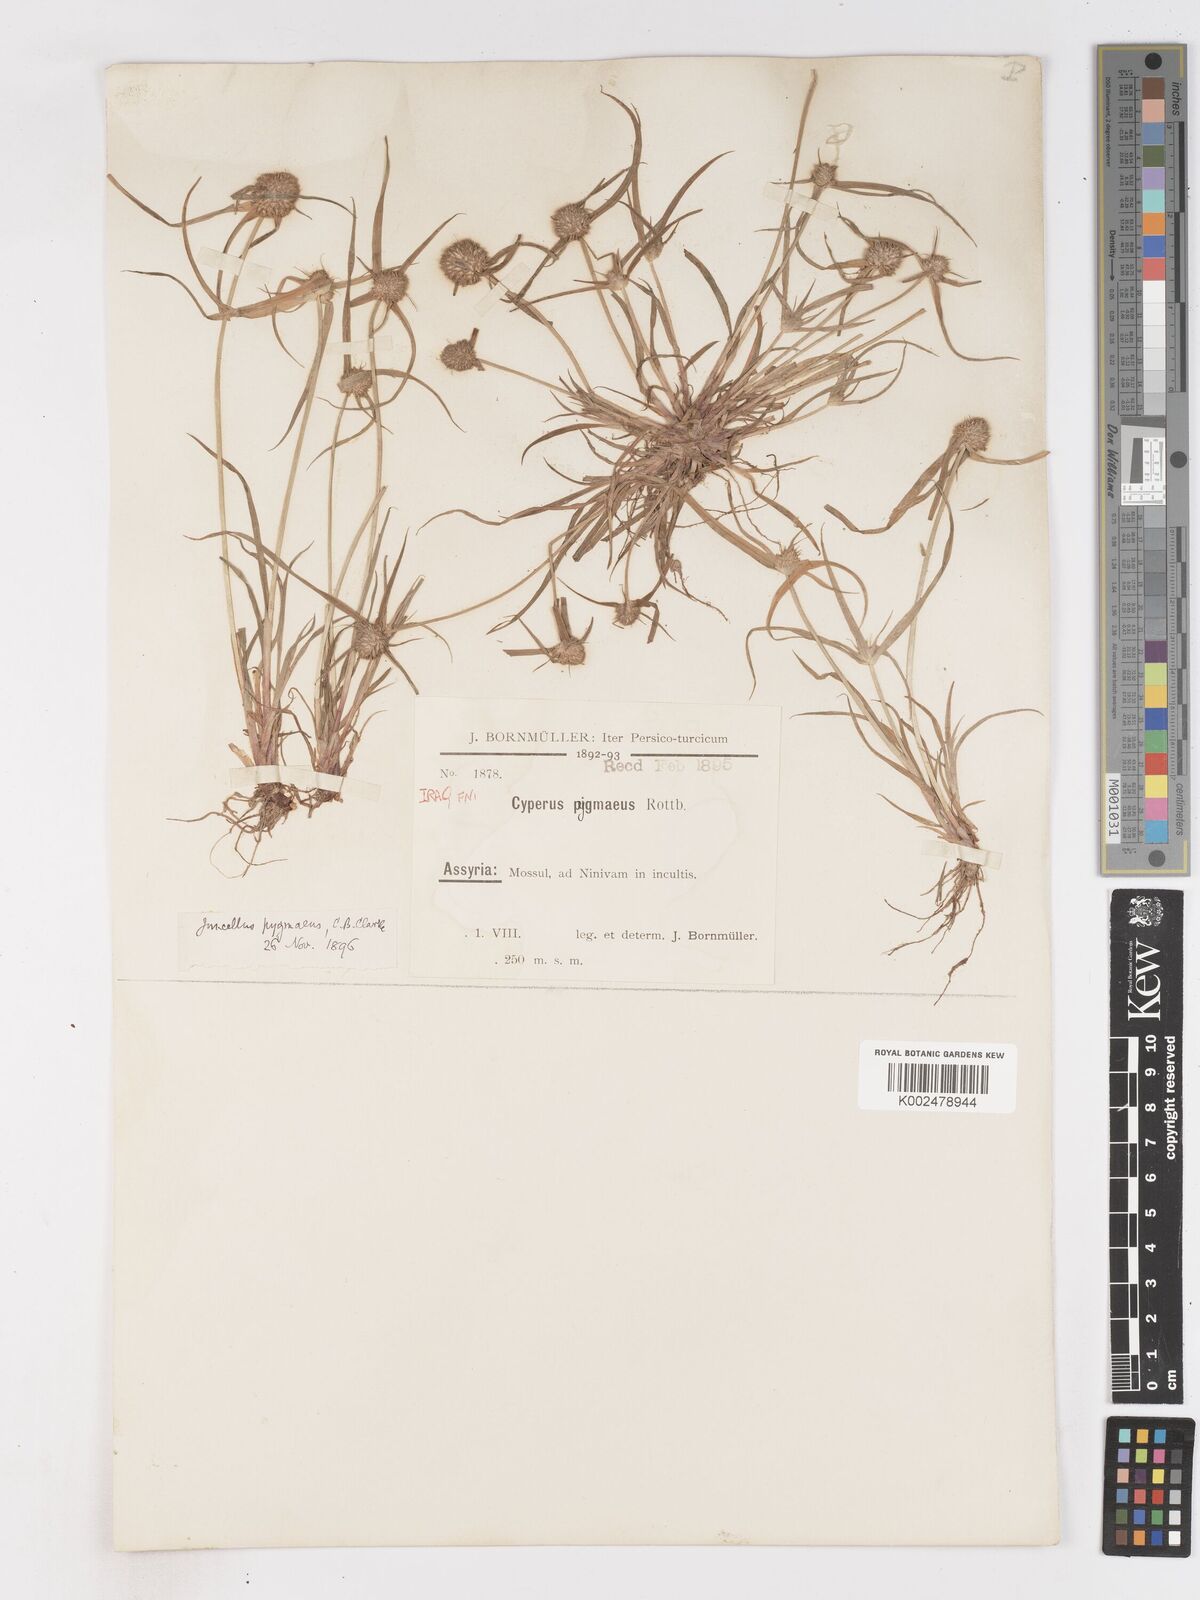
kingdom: Plantae
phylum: Tracheophyta
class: Liliopsida
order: Poales
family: Cyperaceae
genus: Cyperus
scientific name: Cyperus michelianus
